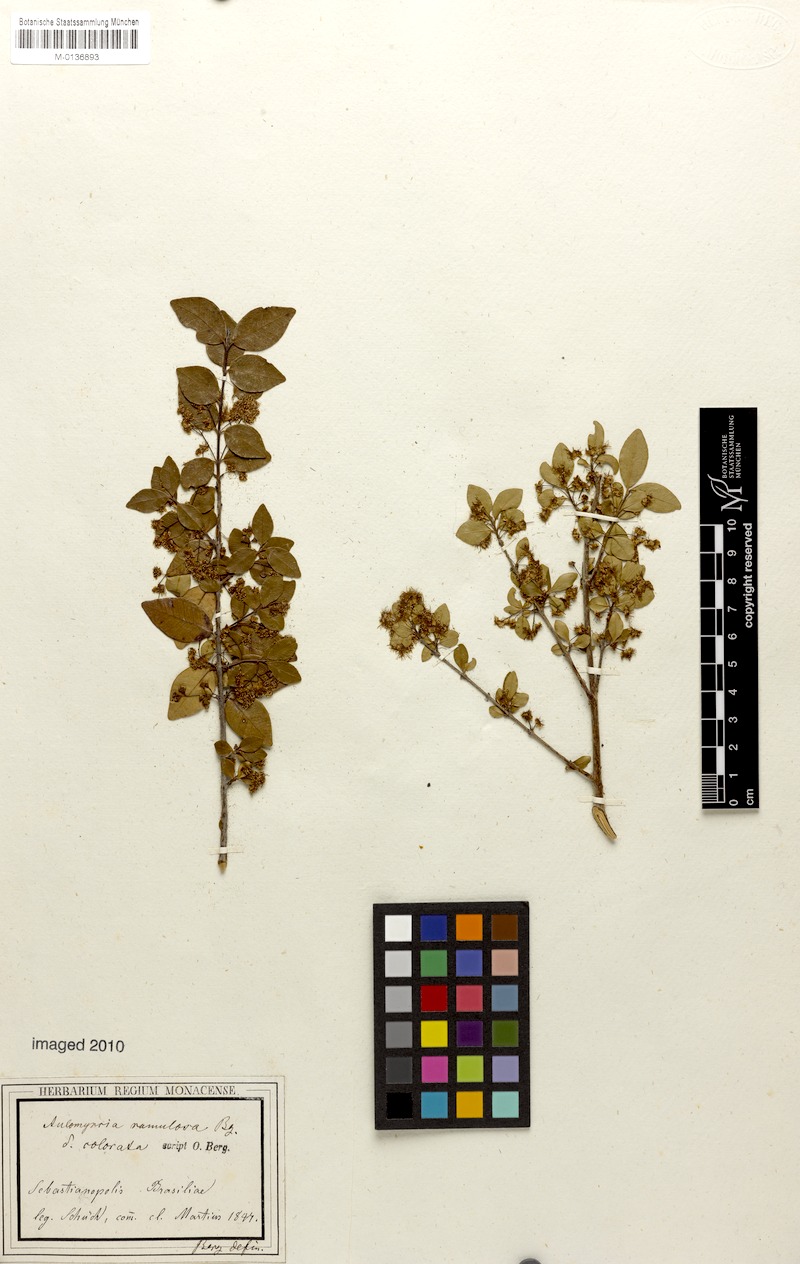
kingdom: Plantae
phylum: Tracheophyta
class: Magnoliopsida
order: Myrtales
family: Myrtaceae
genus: Myrcia
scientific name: Myrcia selloi
